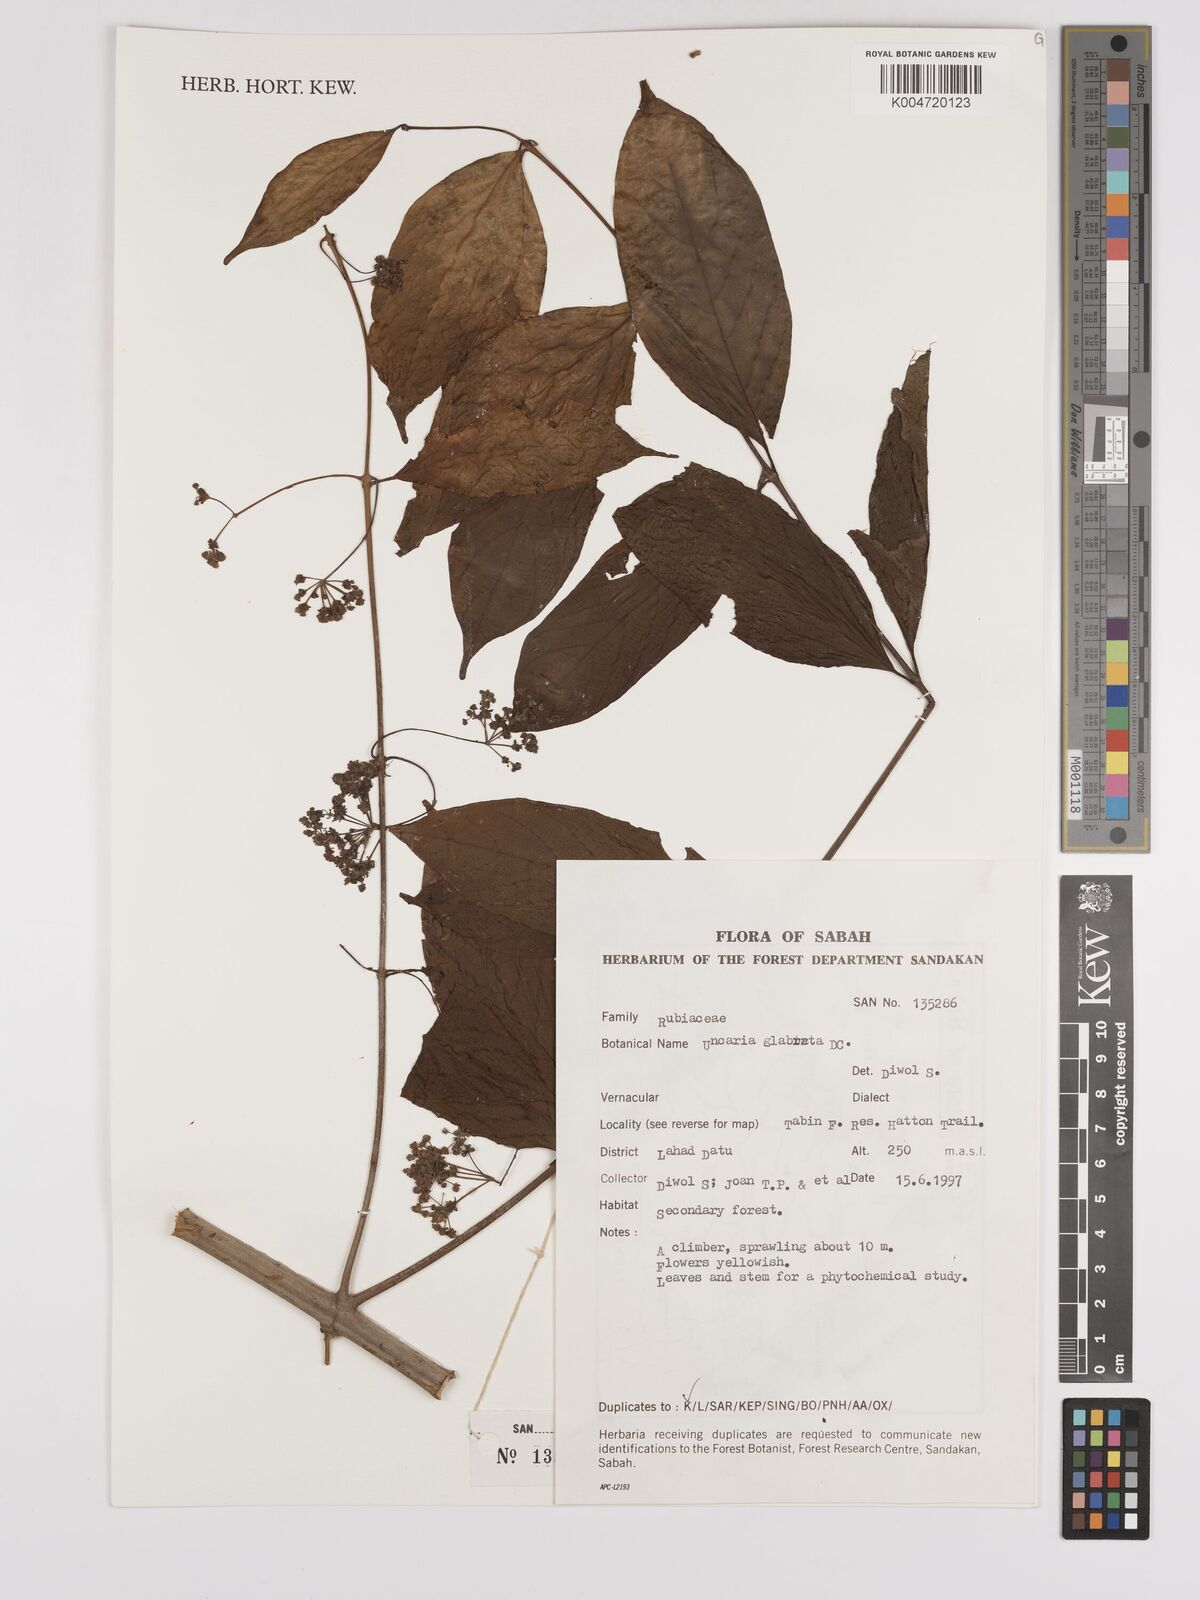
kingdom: Plantae
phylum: Tracheophyta
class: Magnoliopsida
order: Gentianales
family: Rubiaceae
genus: Uncaria
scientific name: Uncaria
